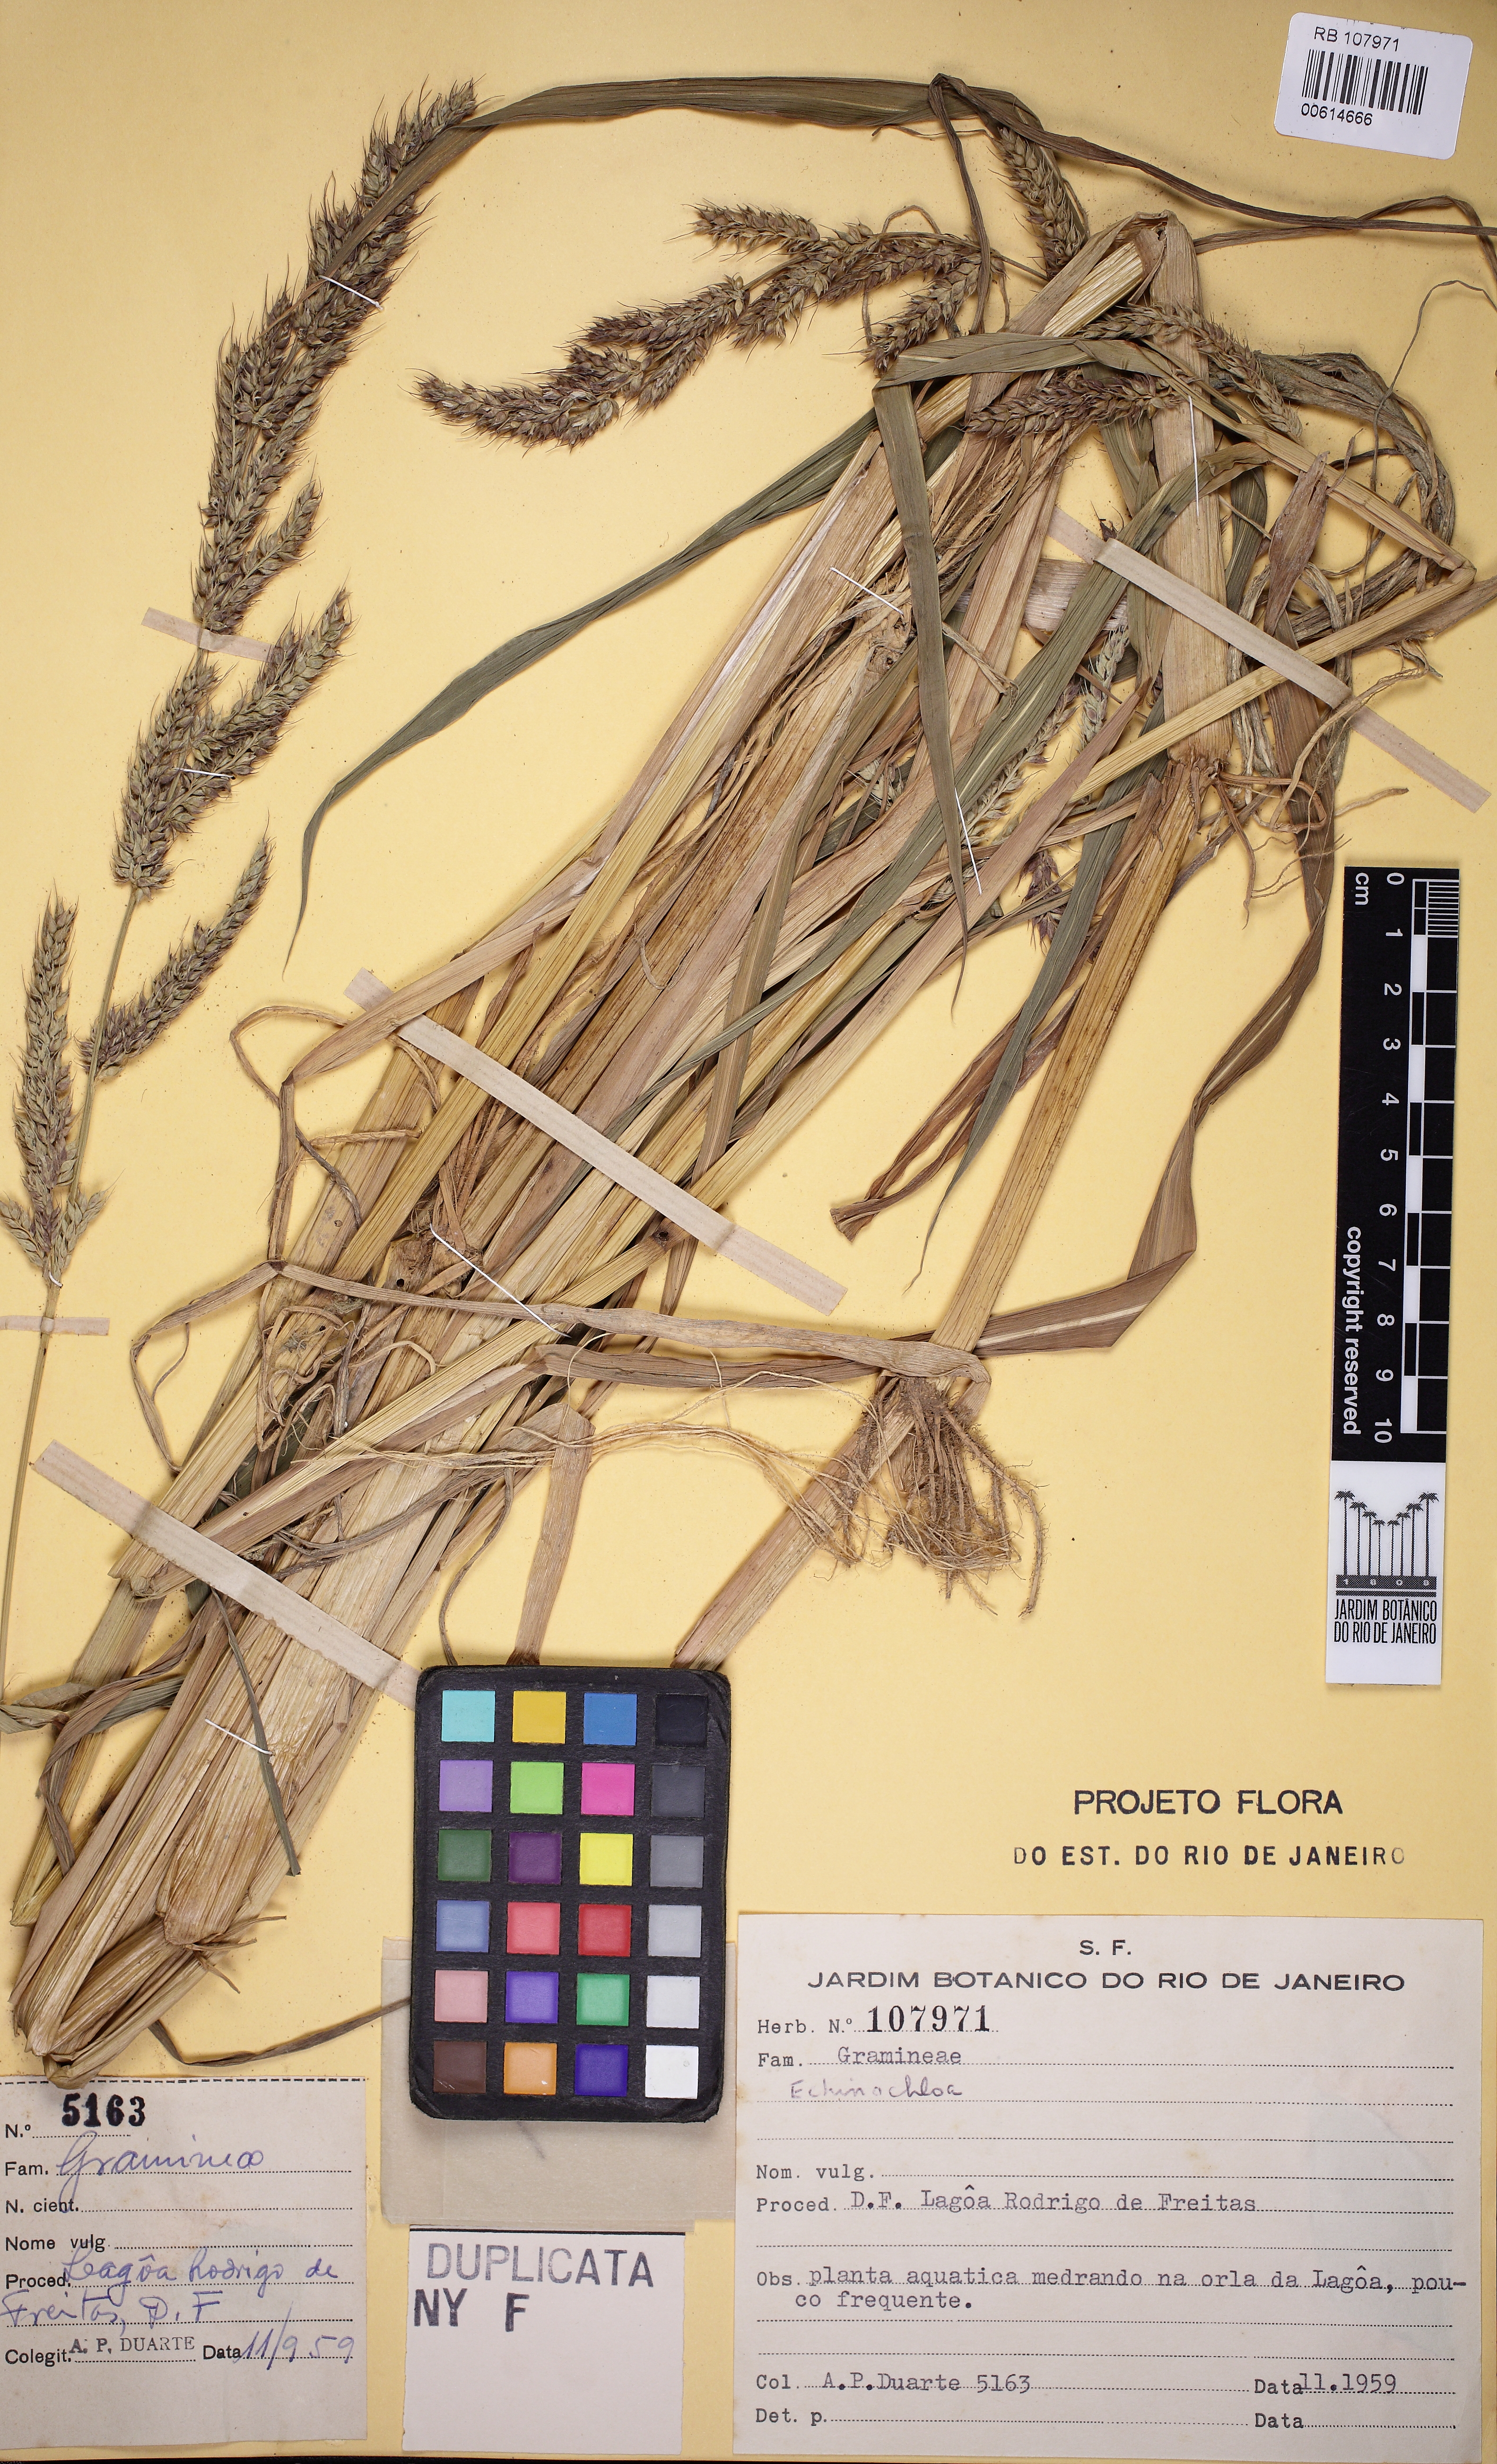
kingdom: Plantae
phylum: Tracheophyta
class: Liliopsida
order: Poales
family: Poaceae
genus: Echinochloa
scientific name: Echinochloa
